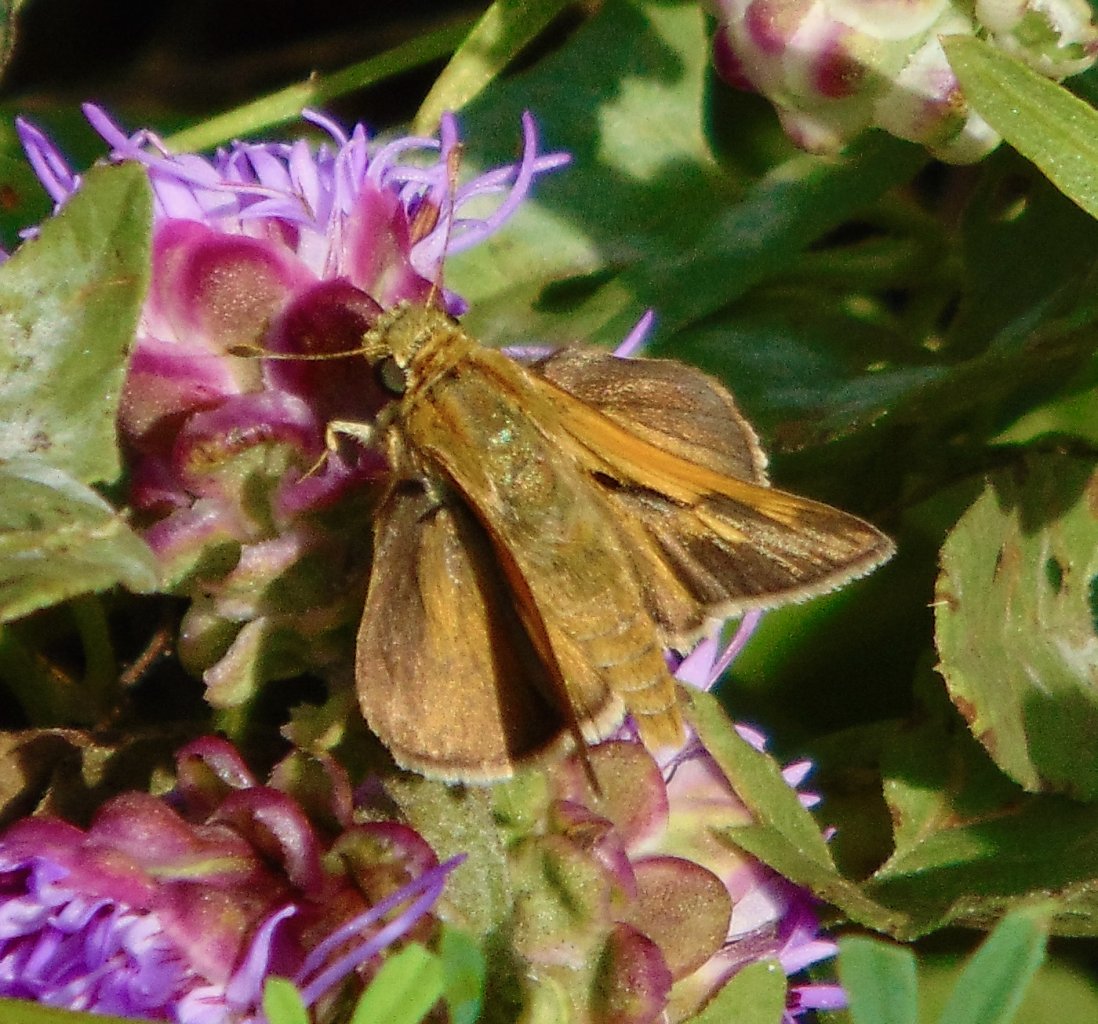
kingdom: Animalia
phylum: Arthropoda
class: Insecta
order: Lepidoptera
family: Hesperiidae
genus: Polites
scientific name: Polites themistocles
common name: Tawny-edged Skipper
